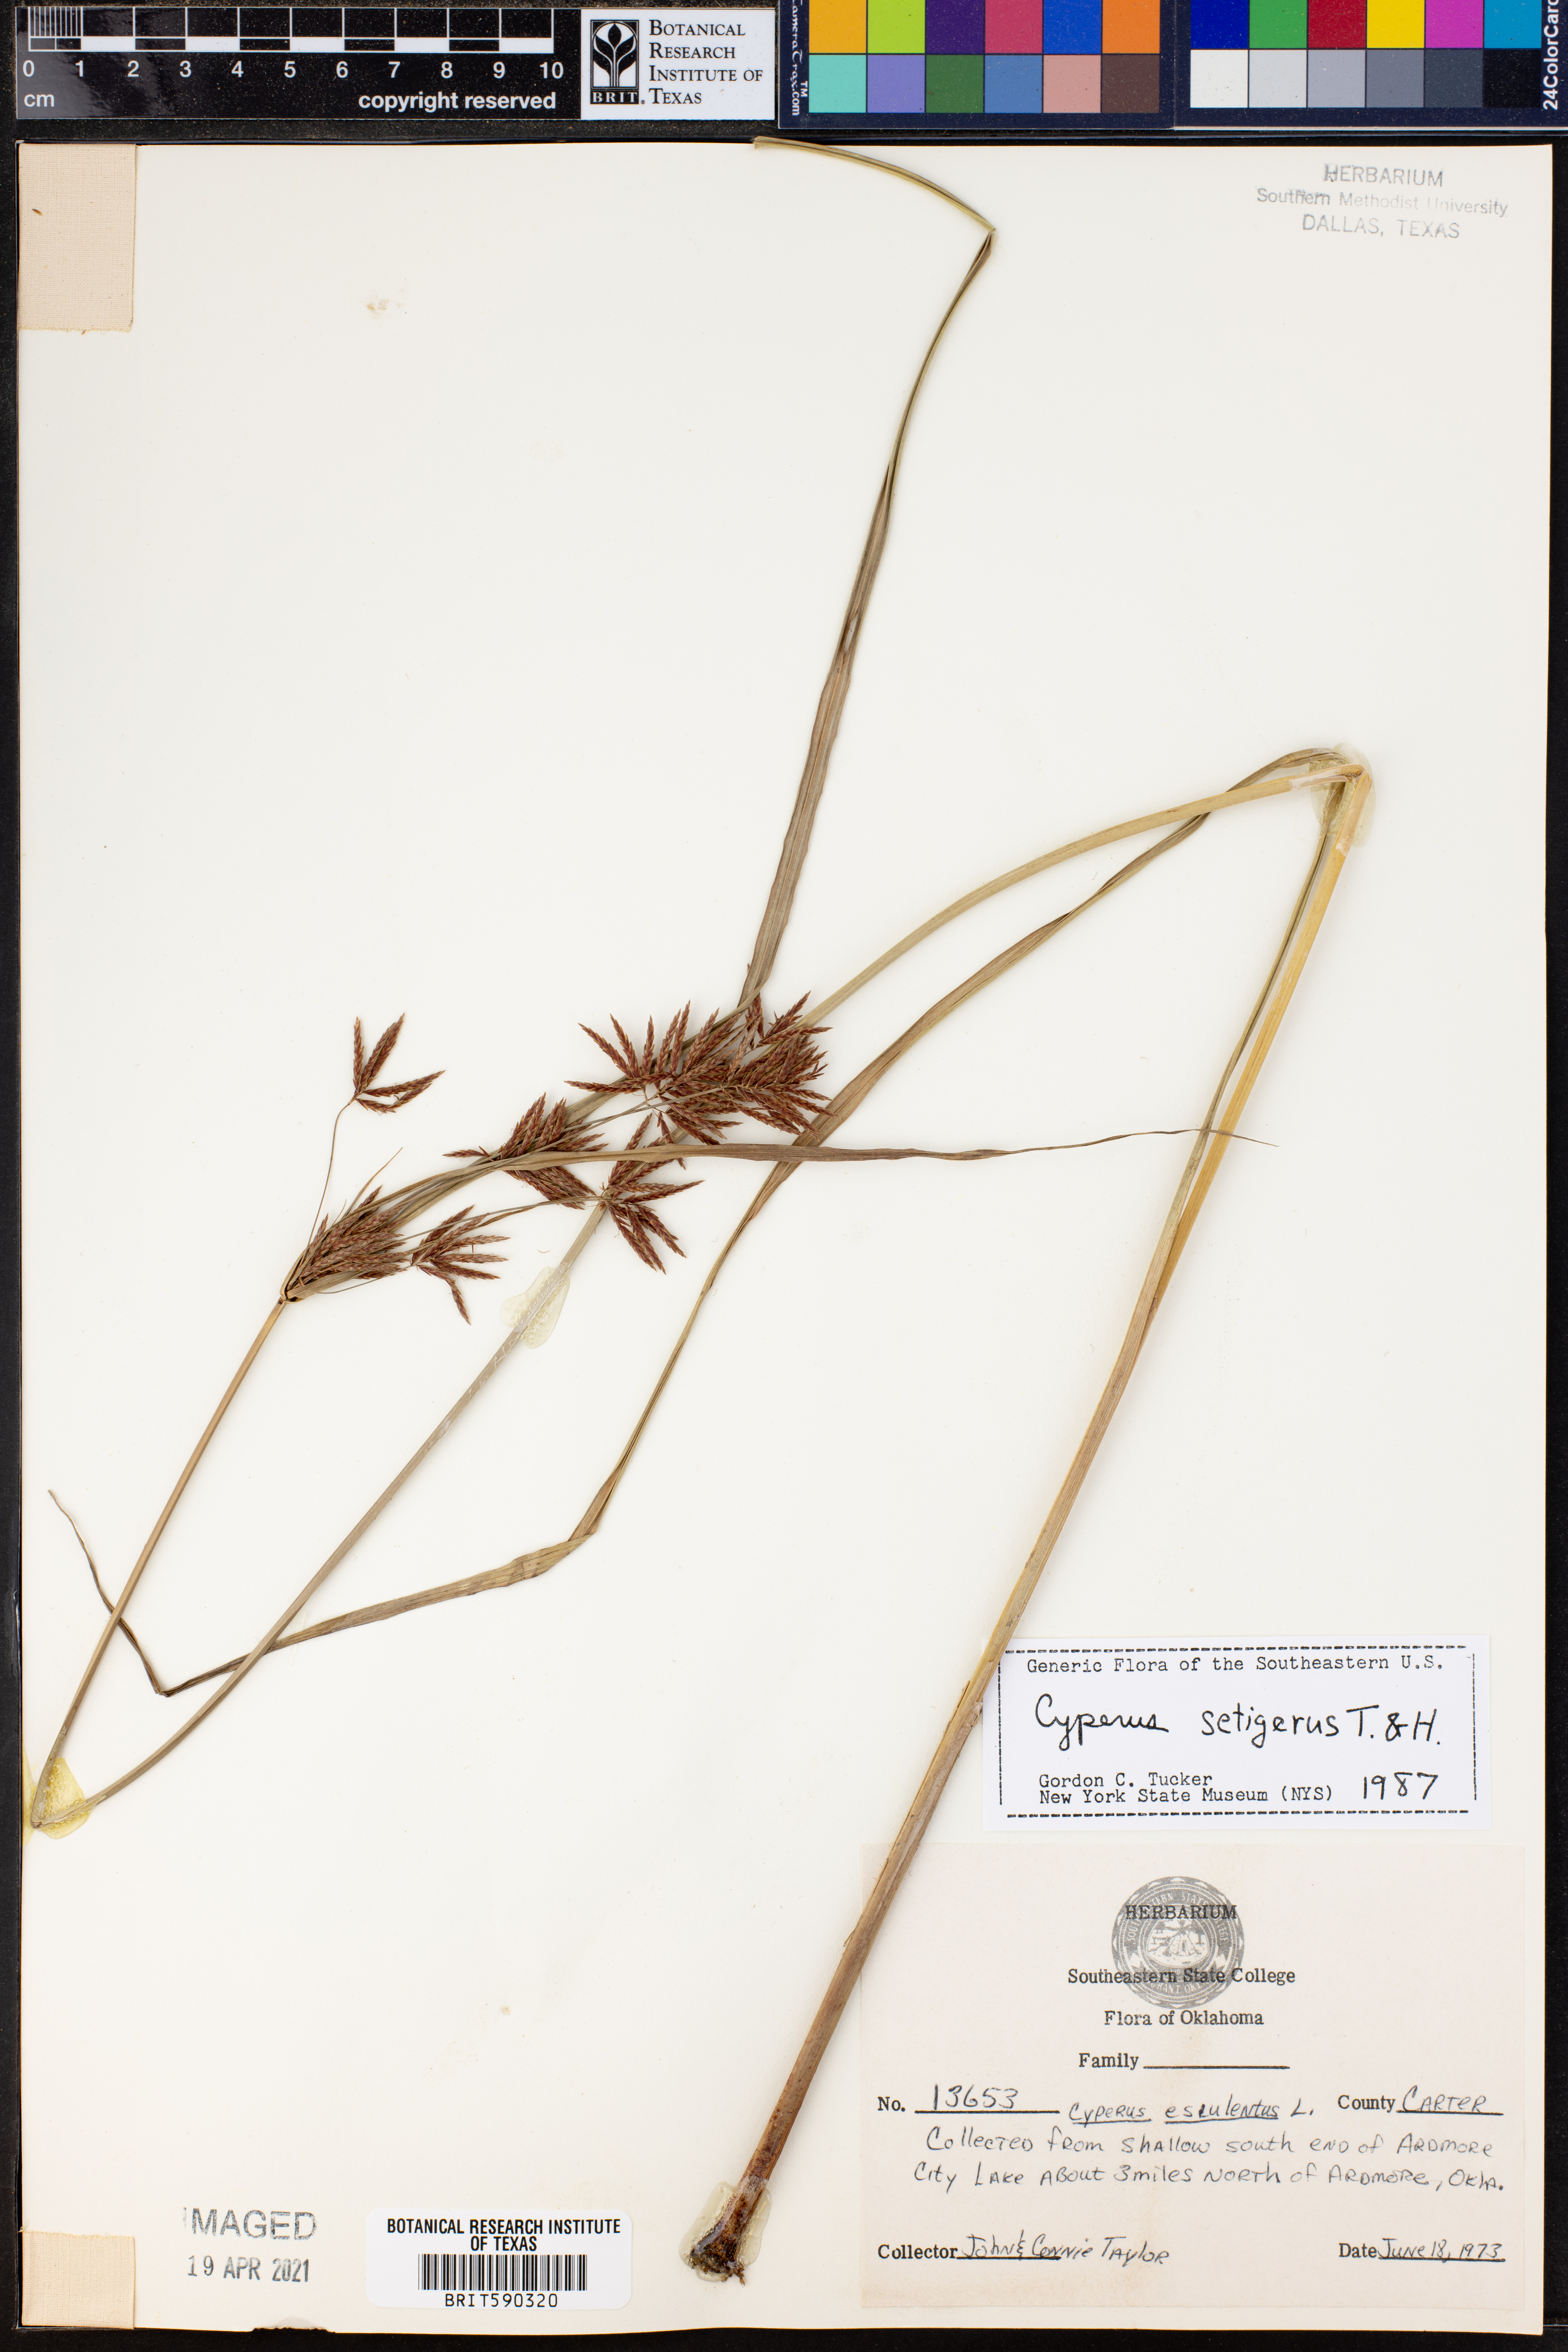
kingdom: Plantae
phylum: Tracheophyta
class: Liliopsida
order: Poales
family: Cyperaceae
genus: Cyperus
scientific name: Cyperus setigerus
